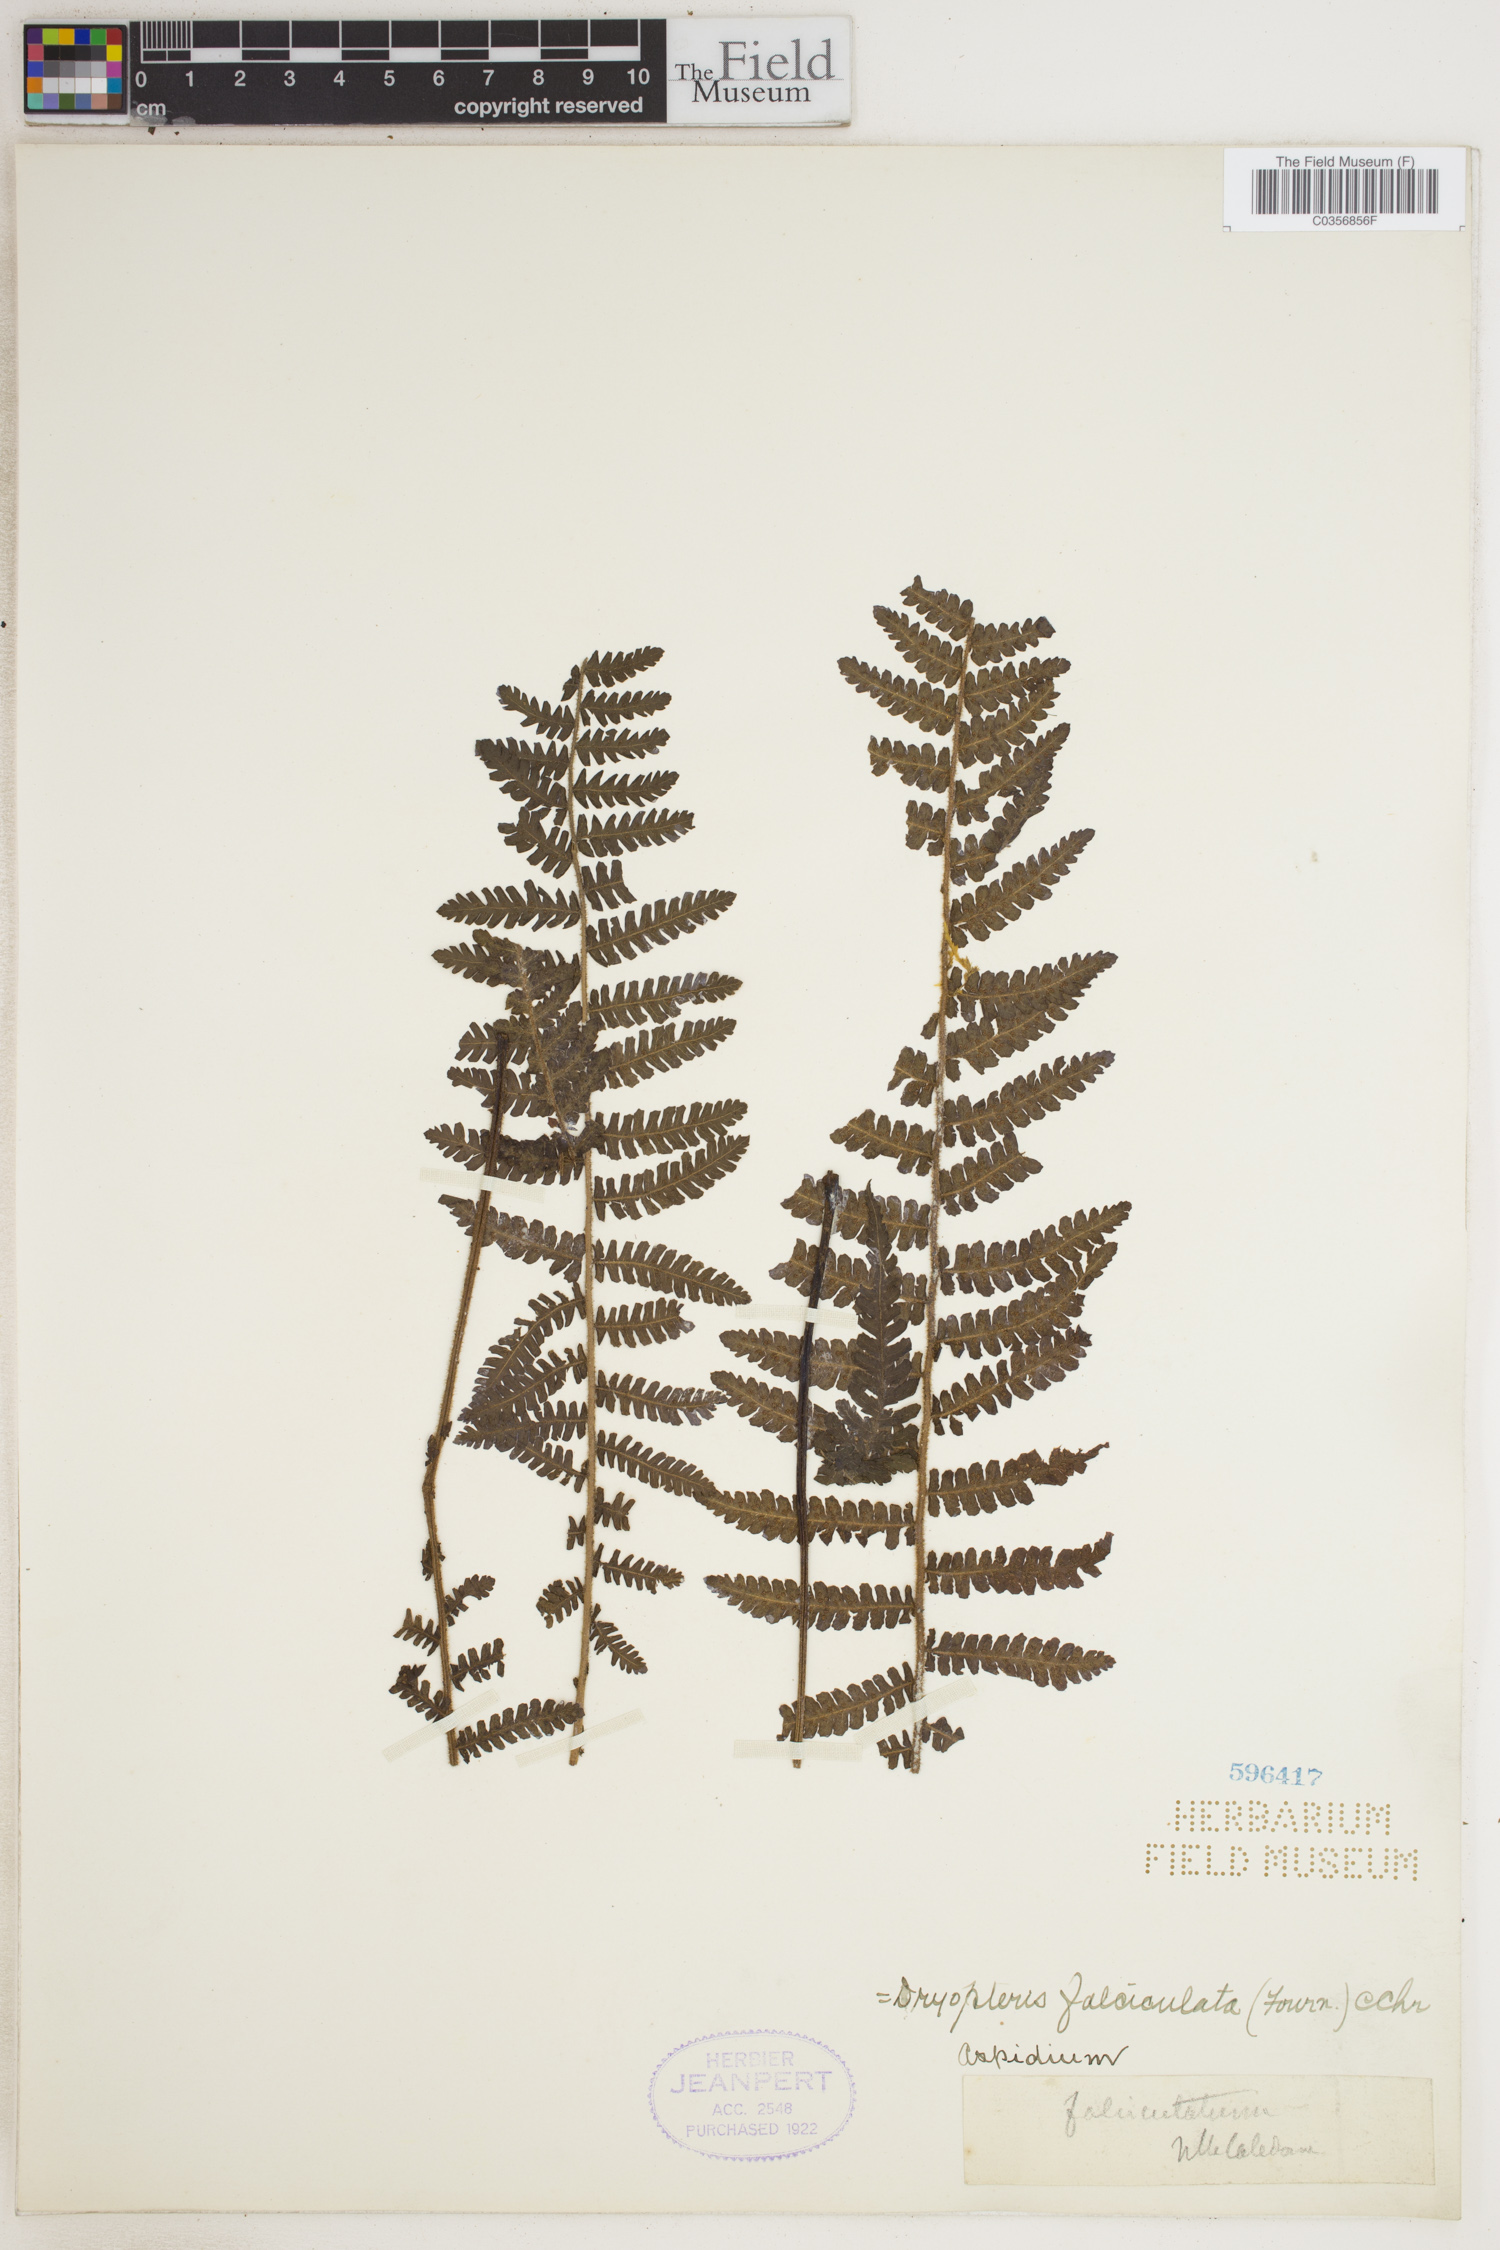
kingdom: Plantae
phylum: Tracheophyta
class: Polypodiopsida
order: Polypodiales
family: Dryopteridaceae
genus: Ctenitis
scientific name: Ctenitis falciculata
